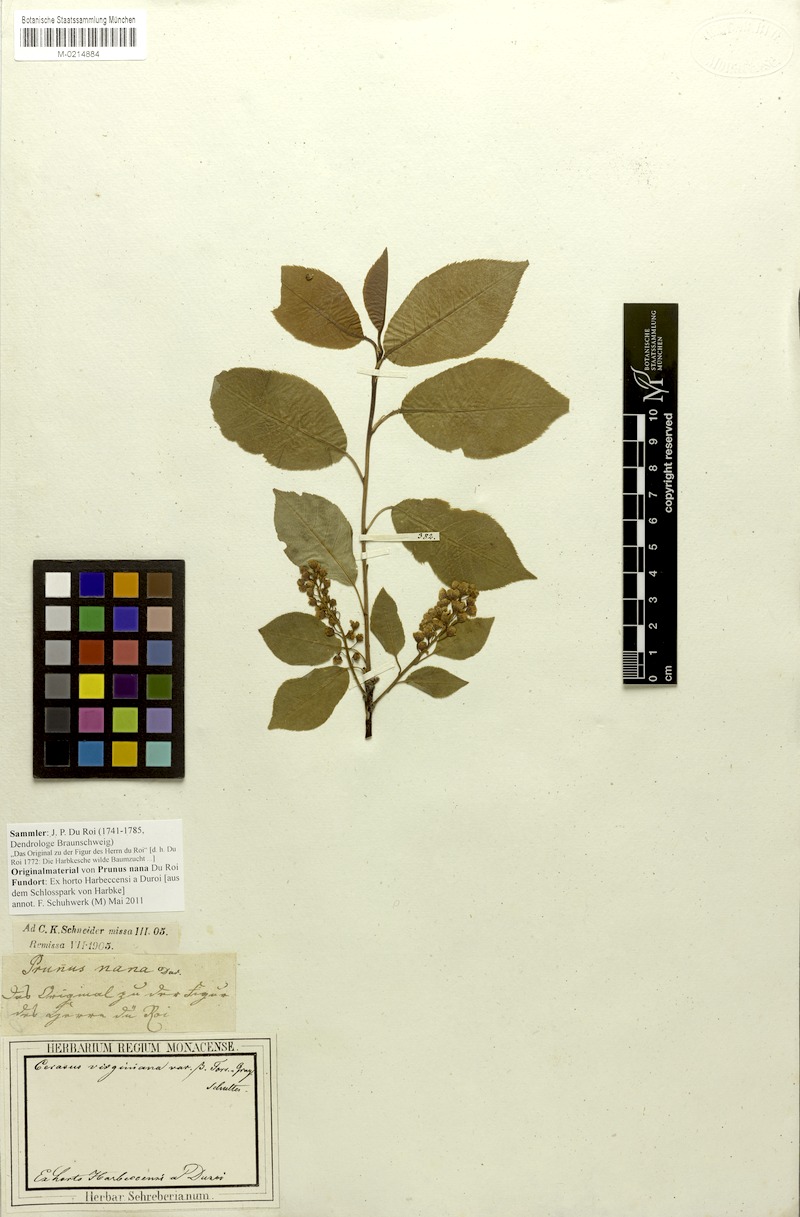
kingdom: Plantae
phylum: Tracheophyta
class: Magnoliopsida
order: Rosales
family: Rosaceae
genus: Prunus
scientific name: Prunus virginiana
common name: Chokecherry
